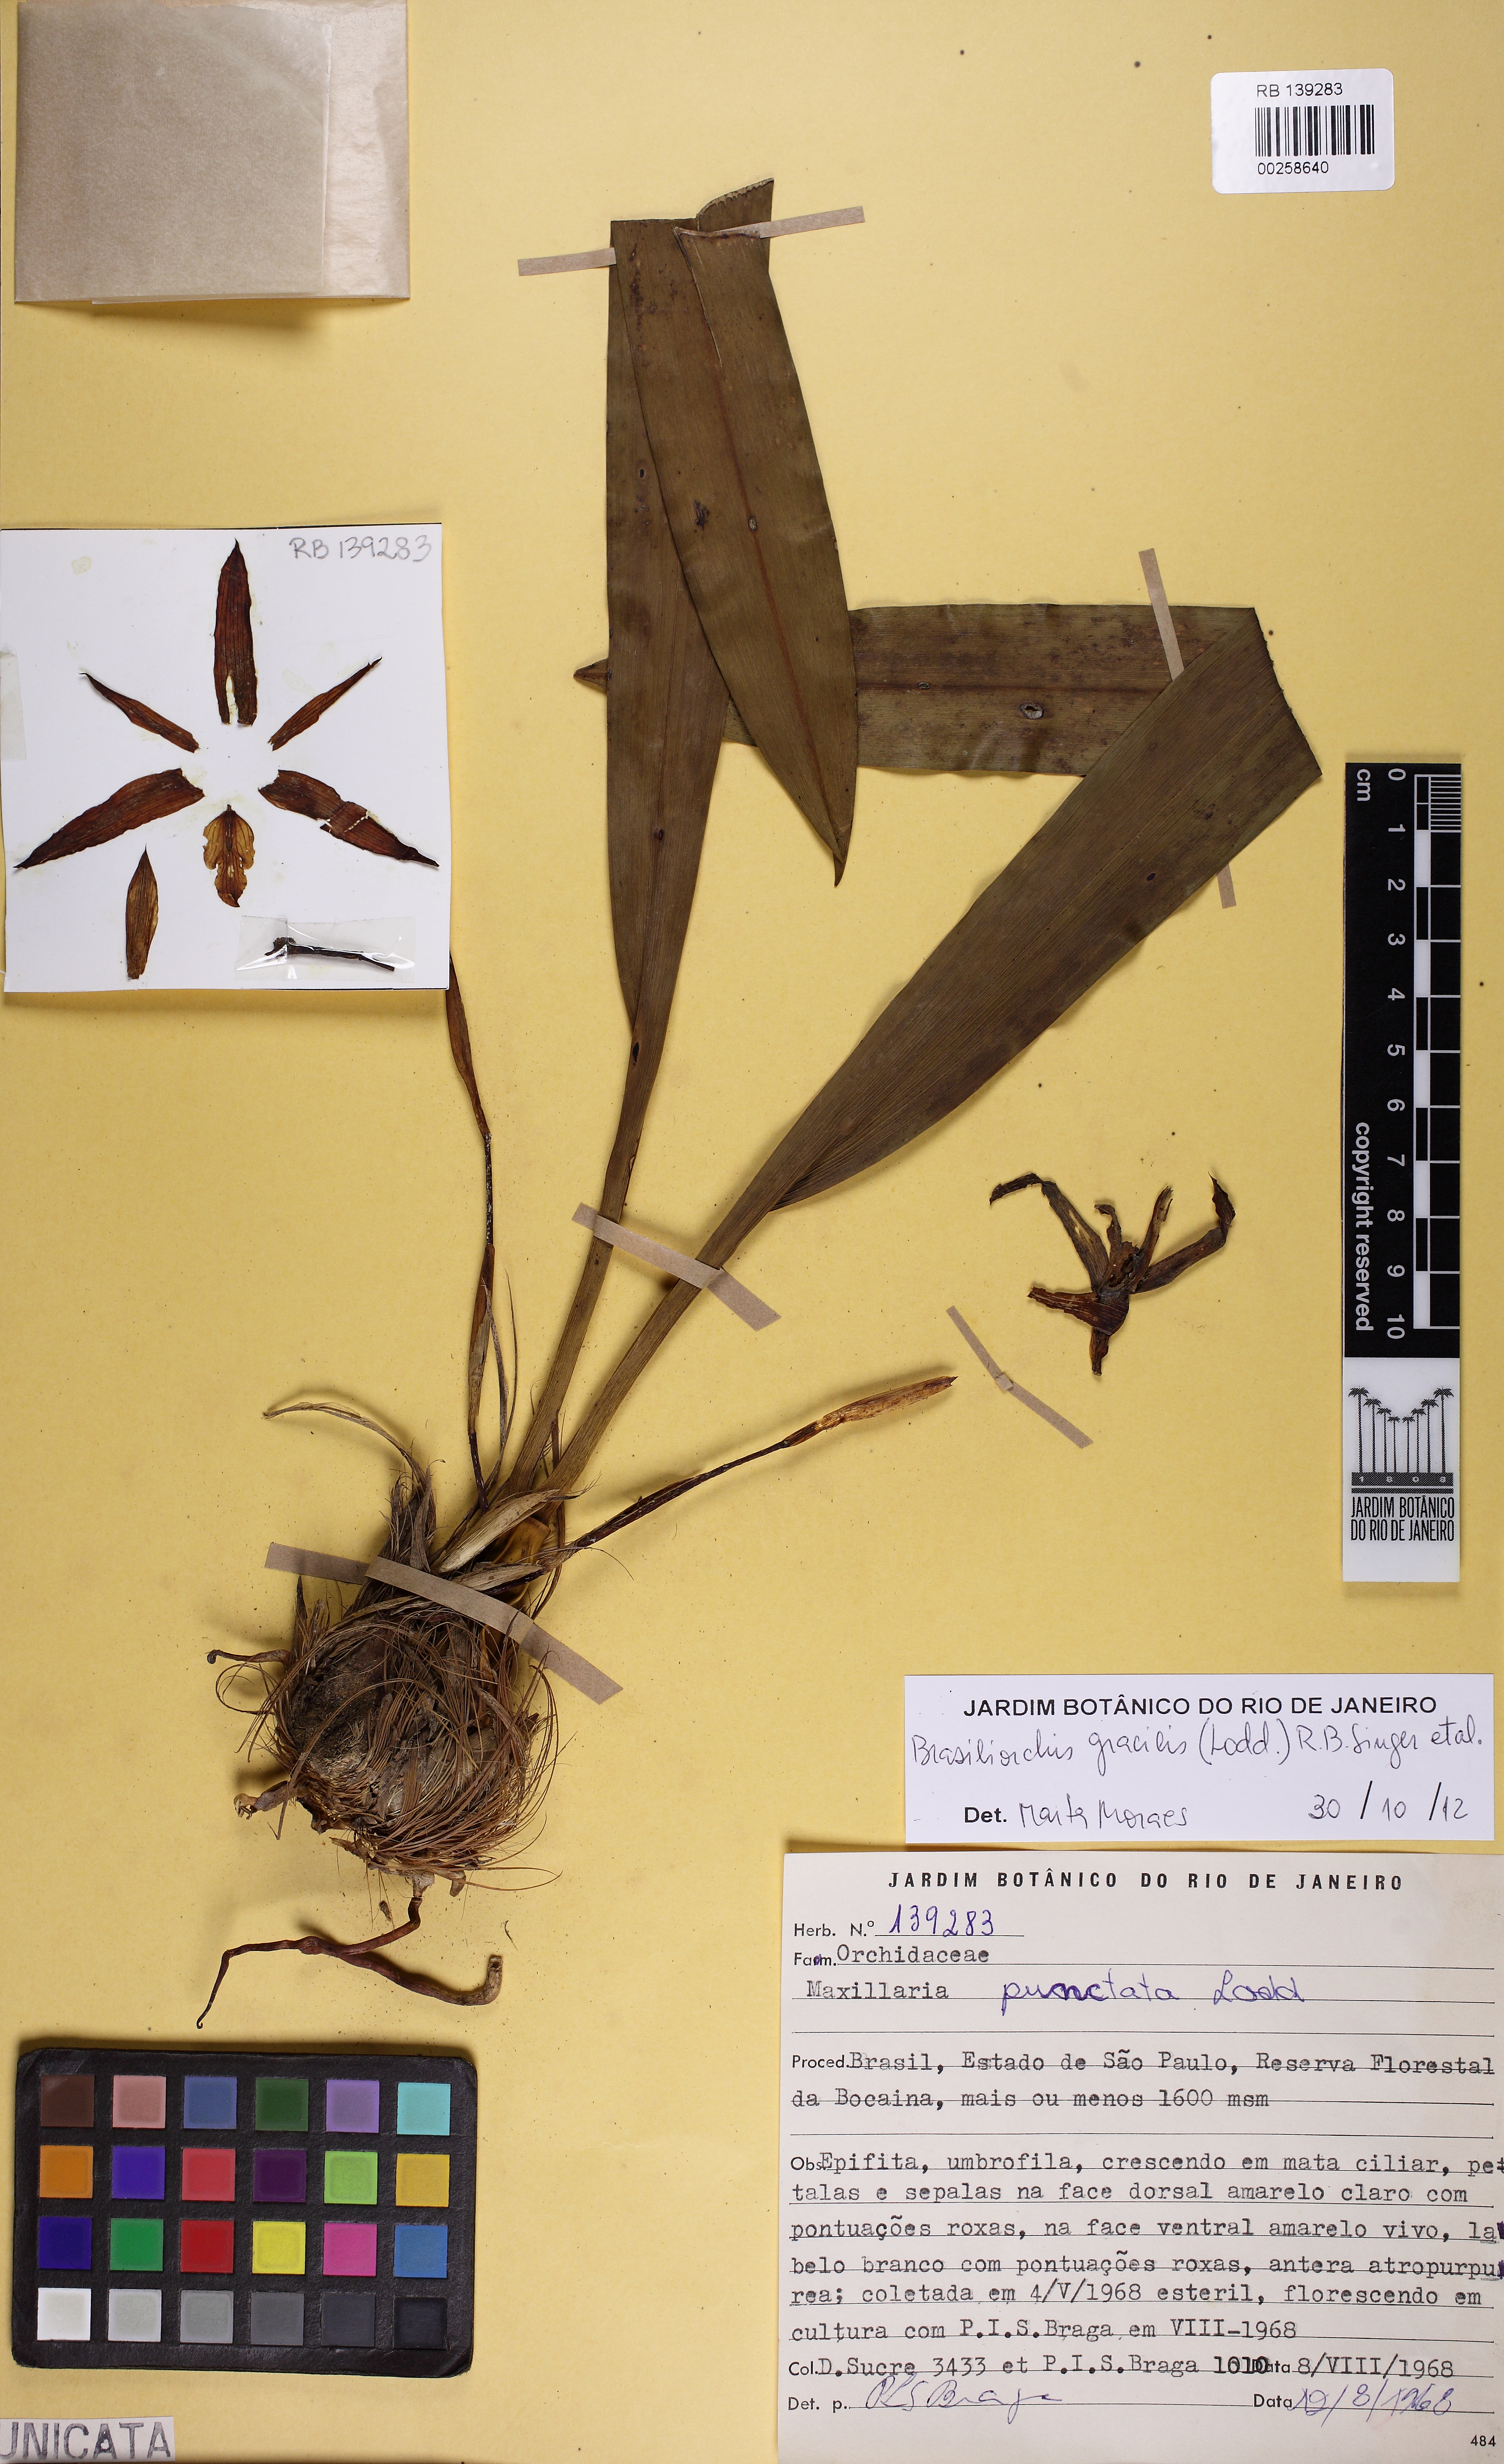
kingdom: Plantae
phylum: Tracheophyta
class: Liliopsida
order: Asparagales
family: Orchidaceae
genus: Maxillaria
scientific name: Maxillaria humilis
